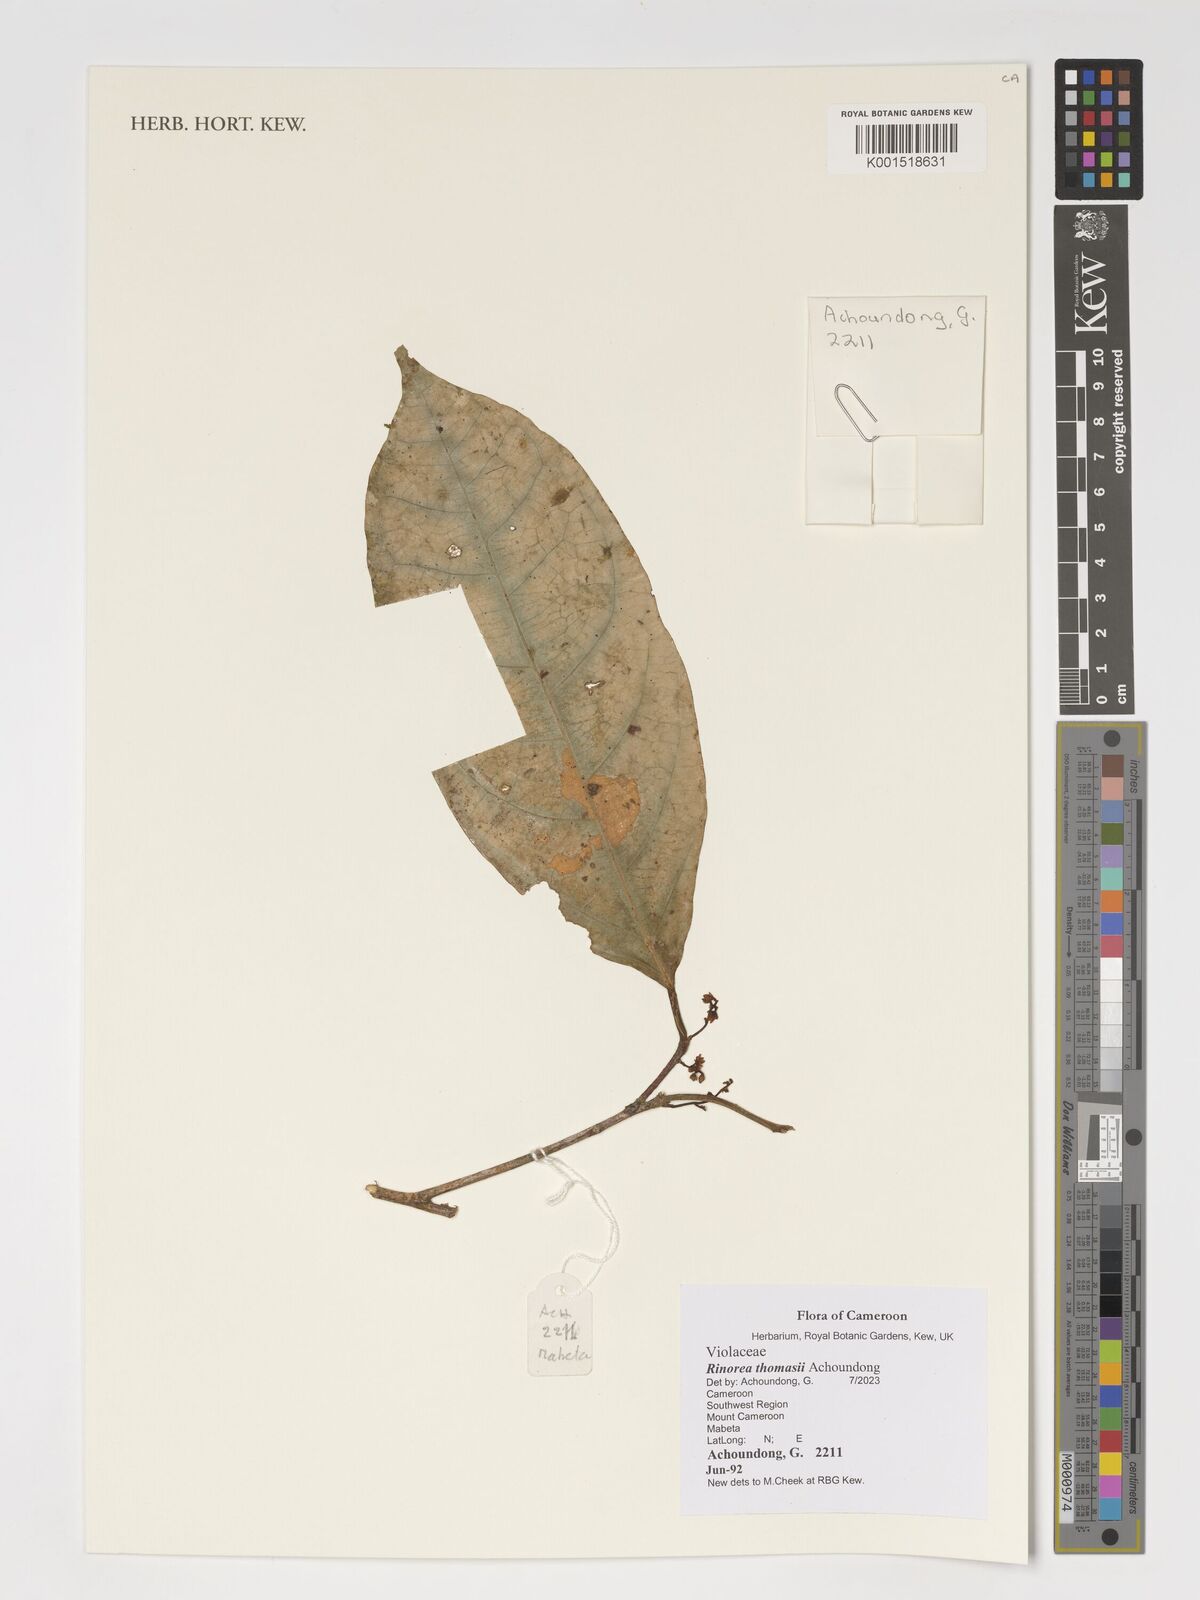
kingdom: Plantae
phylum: Tracheophyta
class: Magnoliopsida
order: Malpighiales
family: Violaceae
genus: Rinorea
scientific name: Rinorea thomasii
